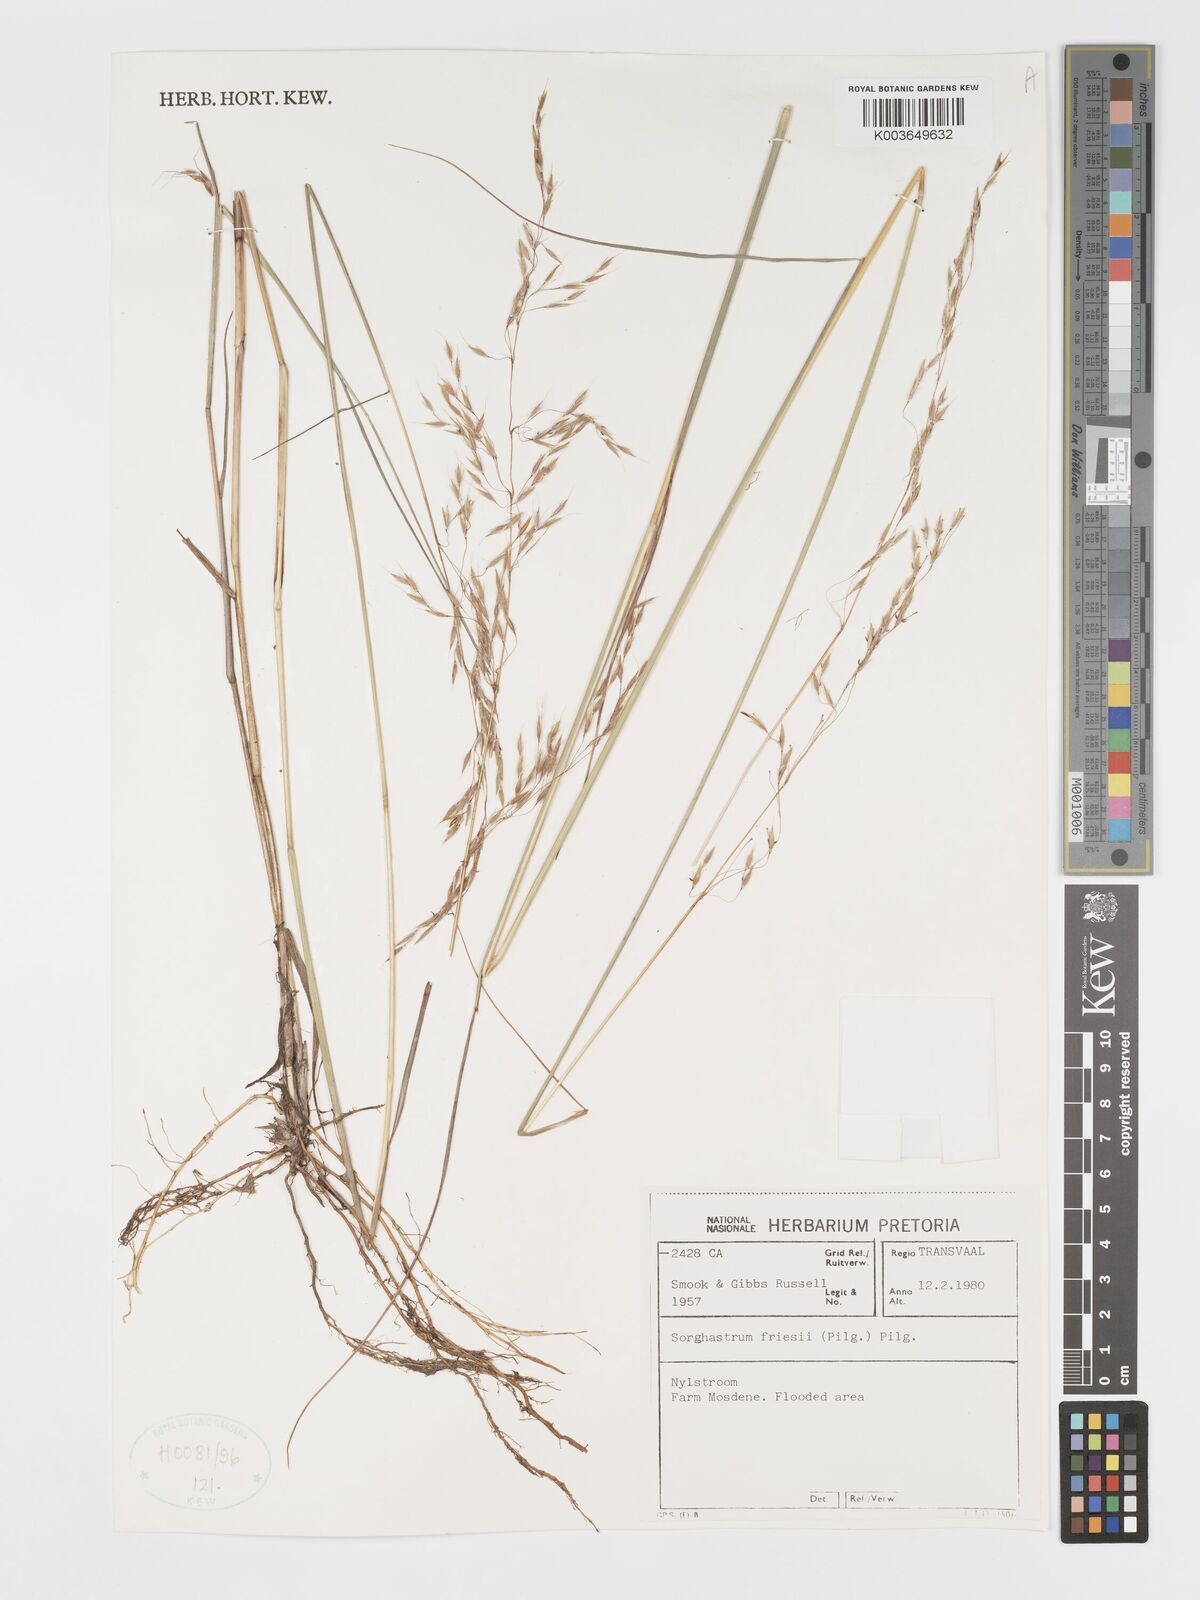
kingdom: Plantae
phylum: Tracheophyta
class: Liliopsida
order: Poales
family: Poaceae
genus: Sorghastrum
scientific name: Sorghastrum nudipes
